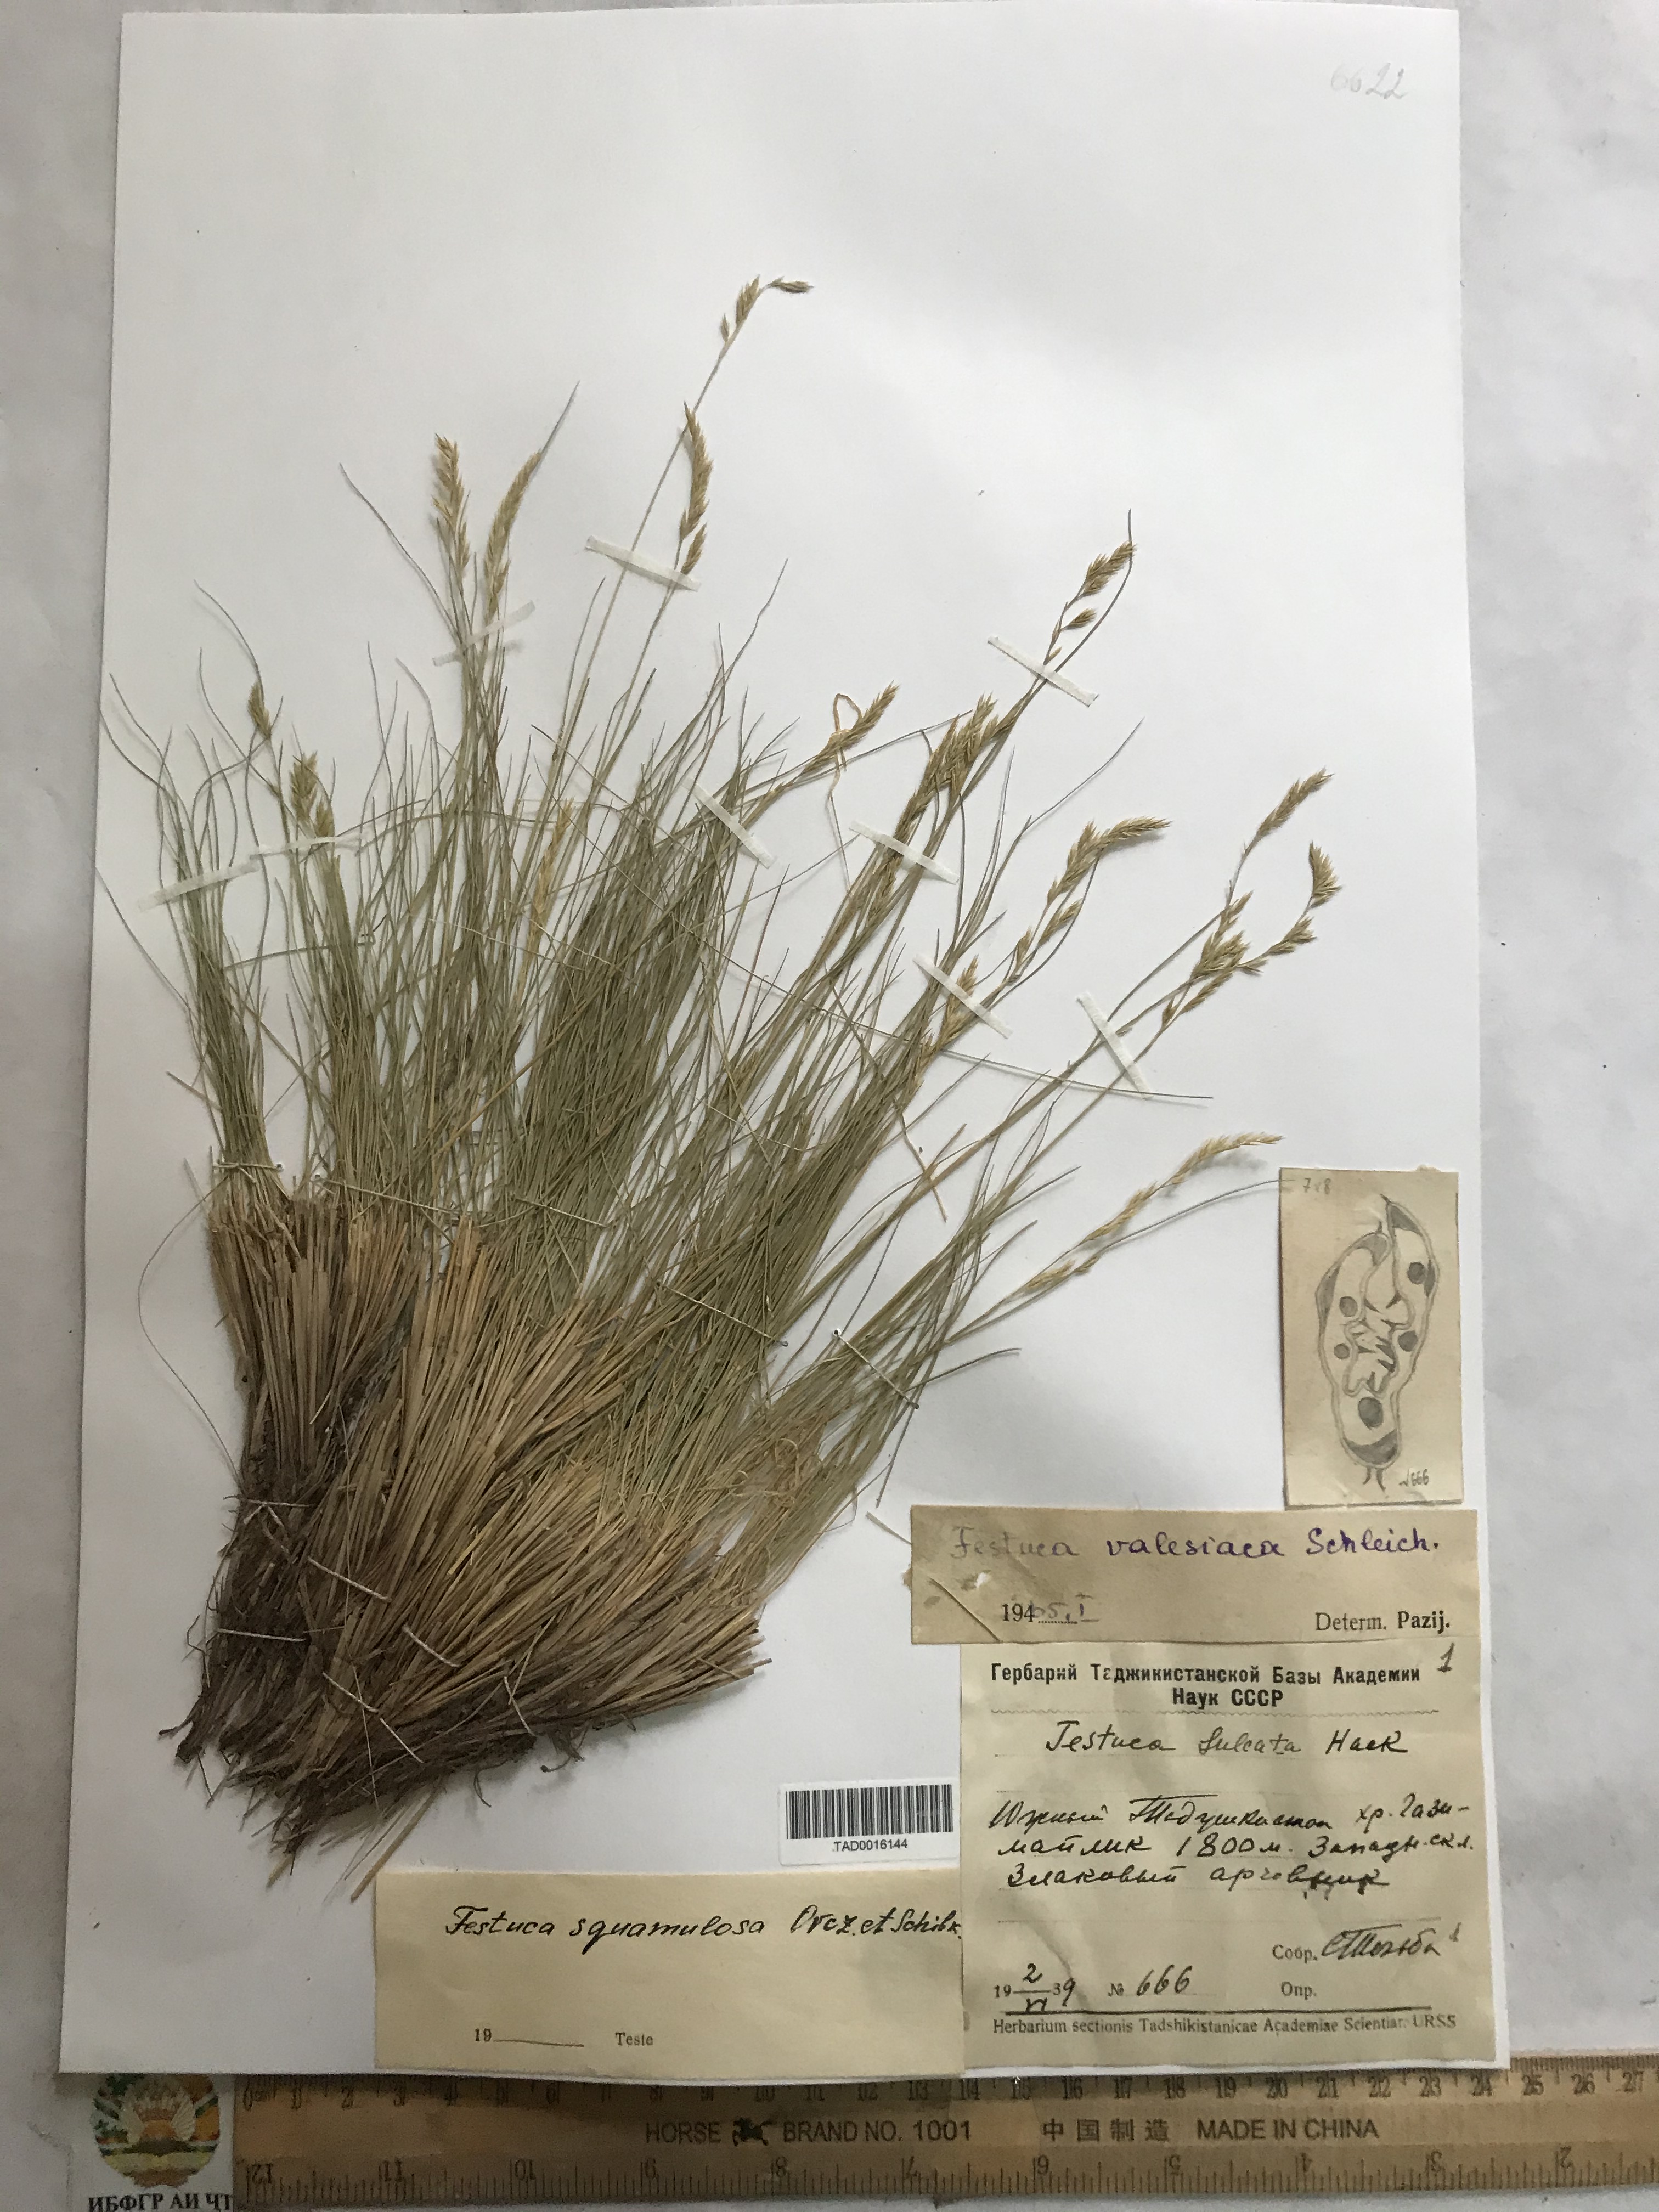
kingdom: Plantae
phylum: Tracheophyta
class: Liliopsida
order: Poales
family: Poaceae
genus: Festuca
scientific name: Festuca valesiaca
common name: Volga fescue
